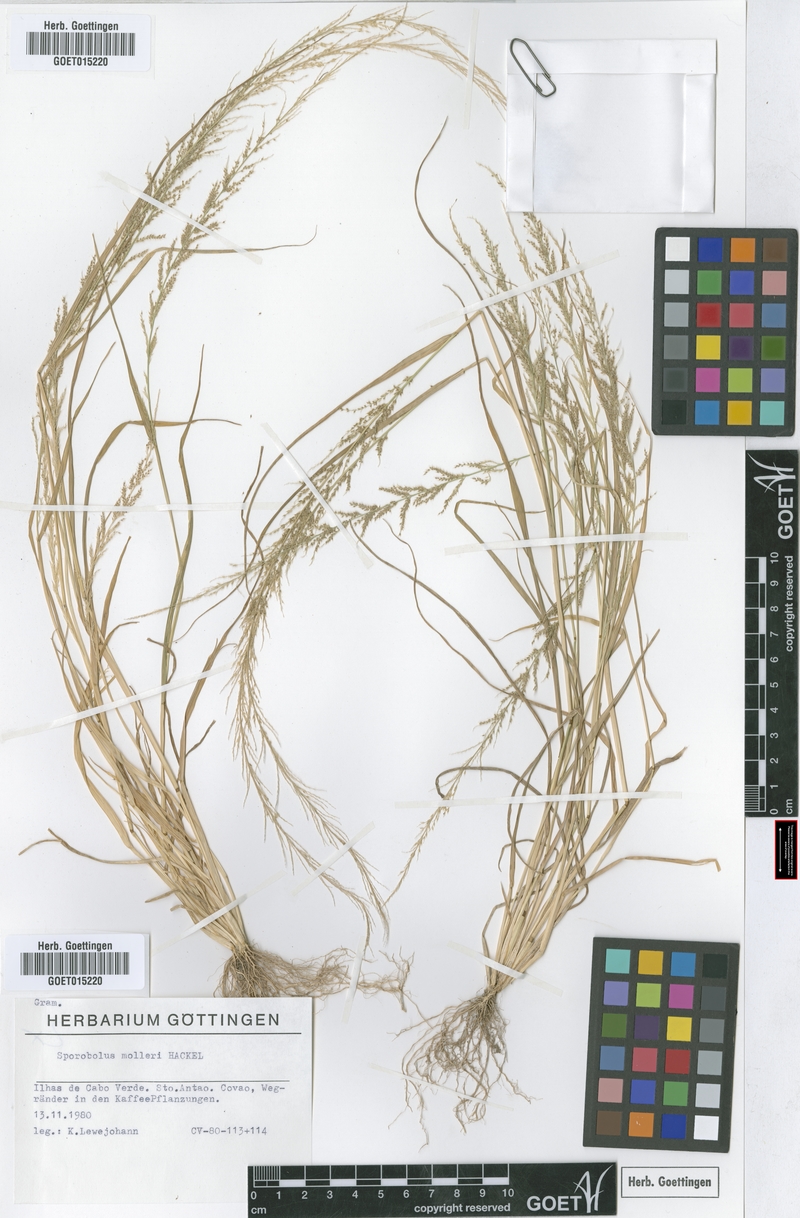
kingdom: Plantae
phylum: Tracheophyta
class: Liliopsida
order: Poales
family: Poaceae
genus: Sporobolus
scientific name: Sporobolus molleri
